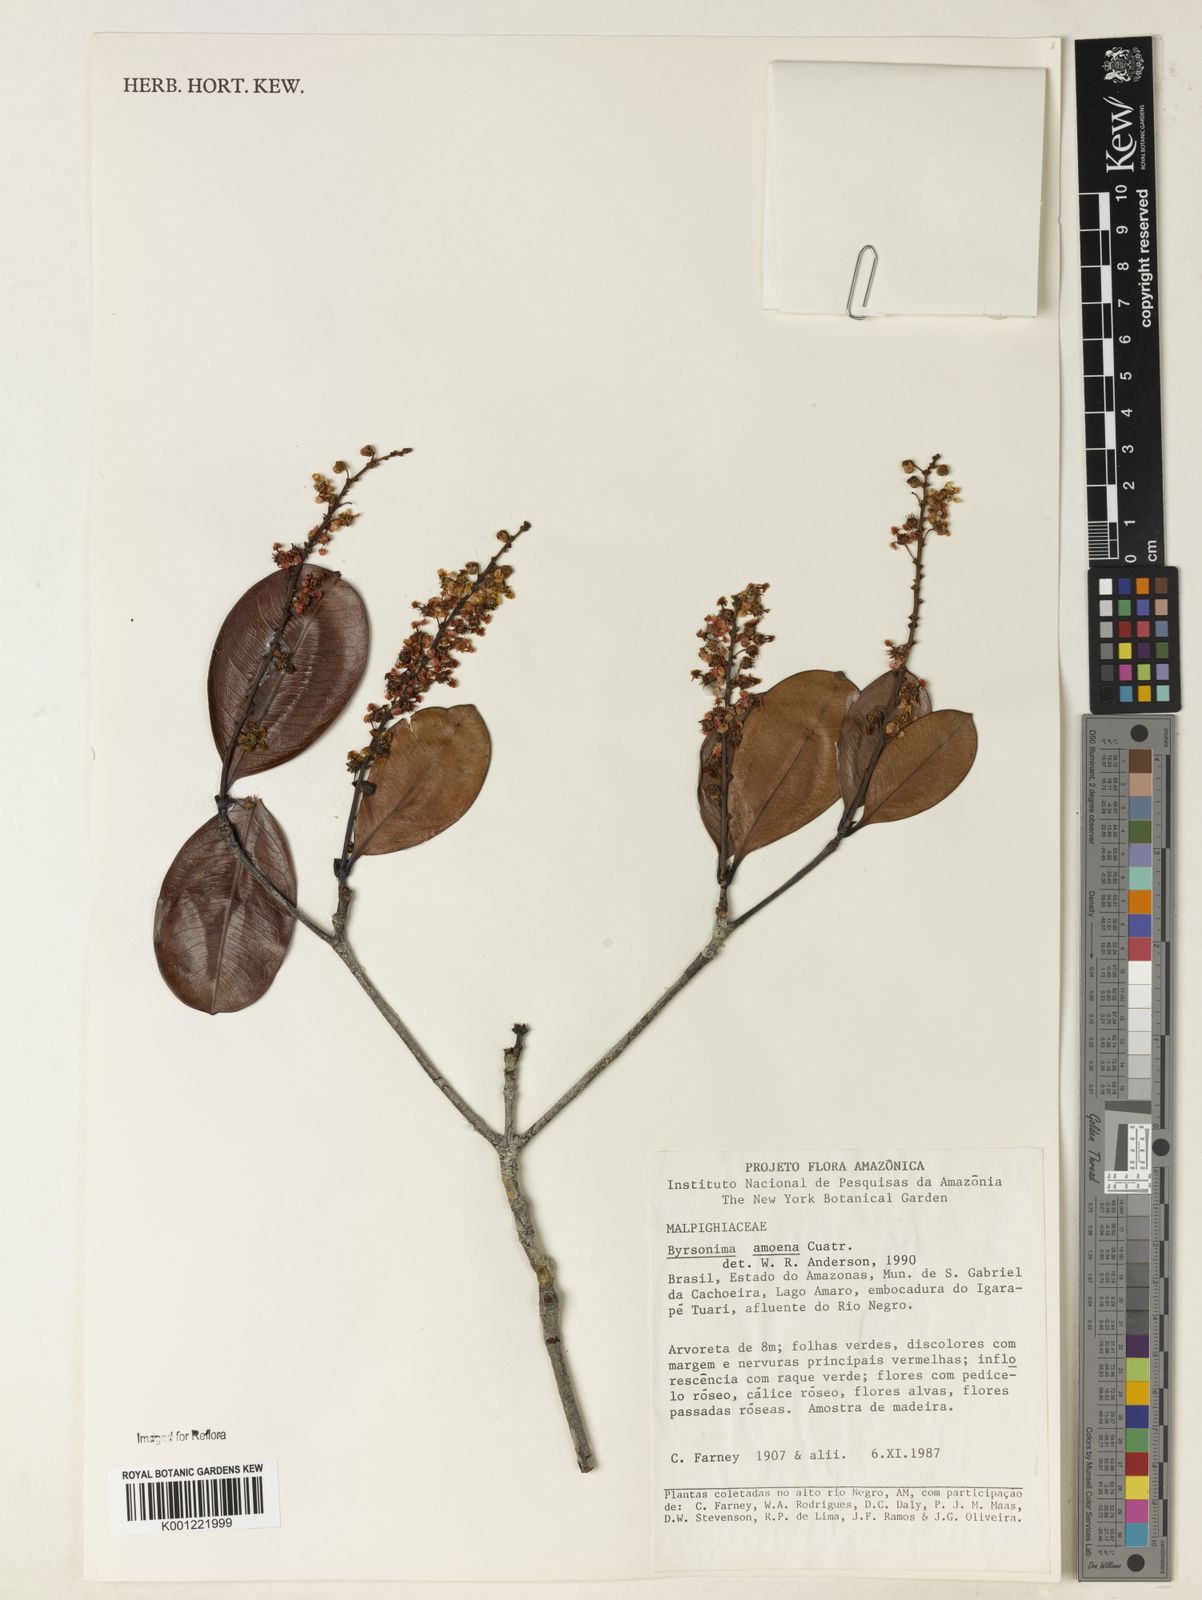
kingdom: Plantae
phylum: Tracheophyta
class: Magnoliopsida
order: Malpighiales
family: Malpighiaceae
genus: Byrsonima
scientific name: Byrsonima amoena
